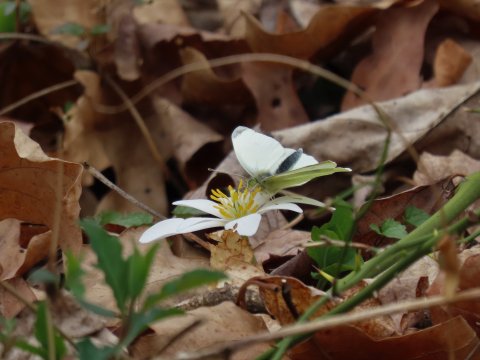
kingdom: Animalia
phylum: Arthropoda
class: Insecta
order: Lepidoptera
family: Pieridae
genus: Pieris
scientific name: Pieris rapae
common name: Cabbage White
